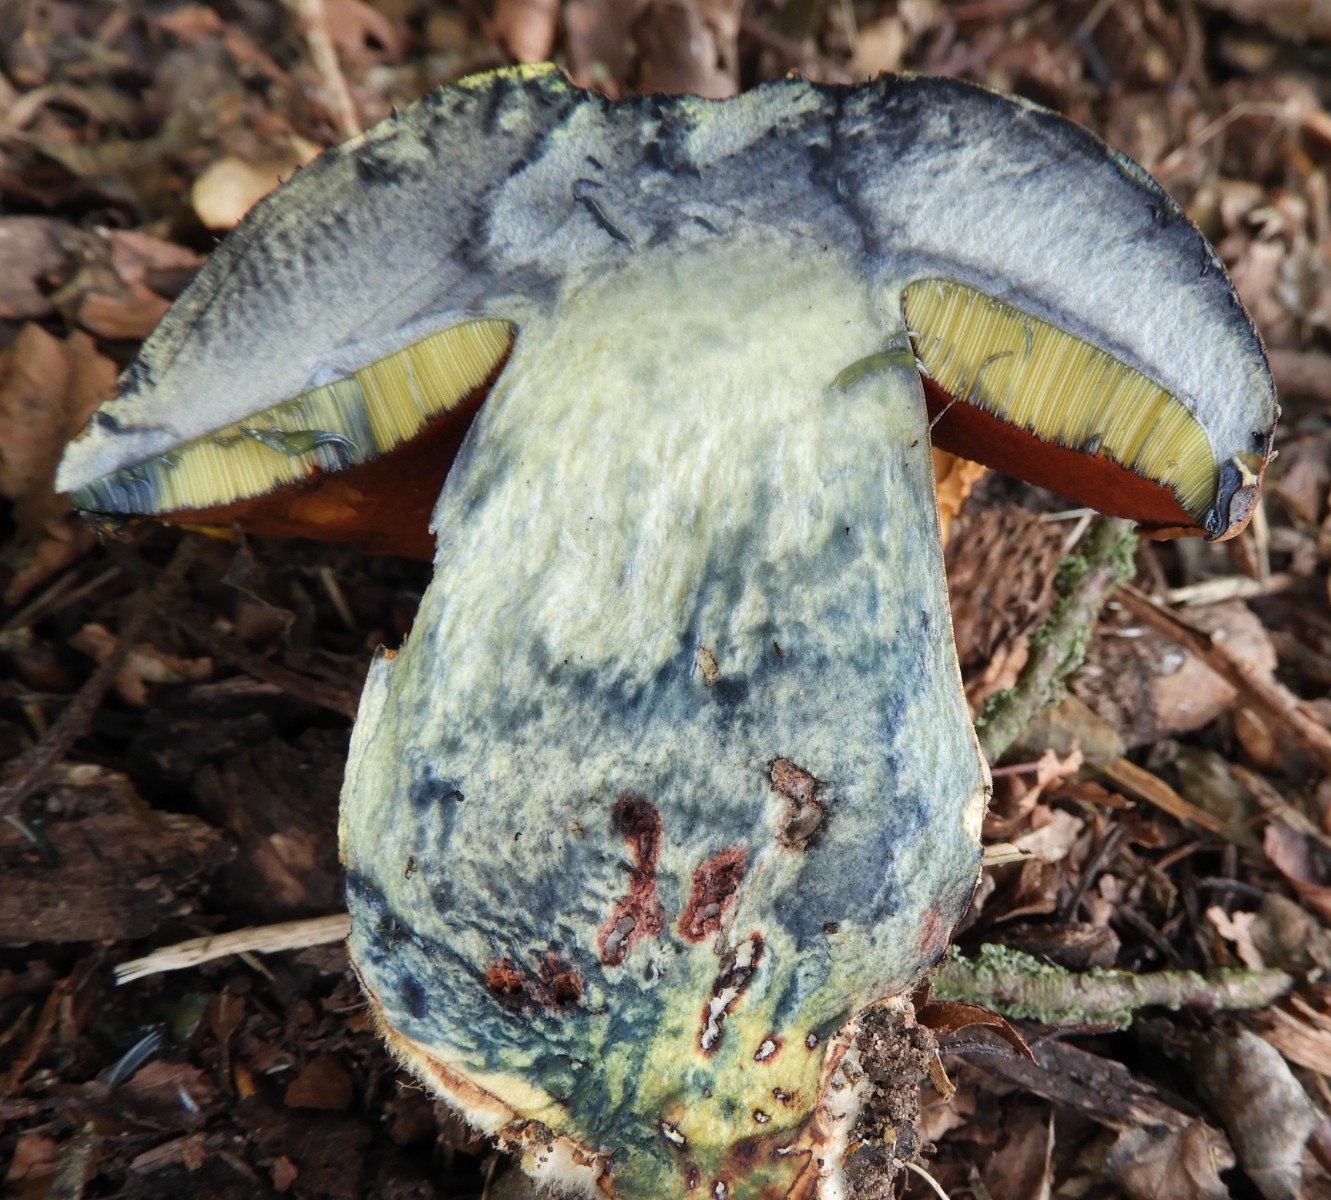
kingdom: Fungi
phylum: Basidiomycota
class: Agaricomycetes
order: Boletales
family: Boletaceae
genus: Neoboletus
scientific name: Neoboletus erythropus
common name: punktstokket indigorørhat
